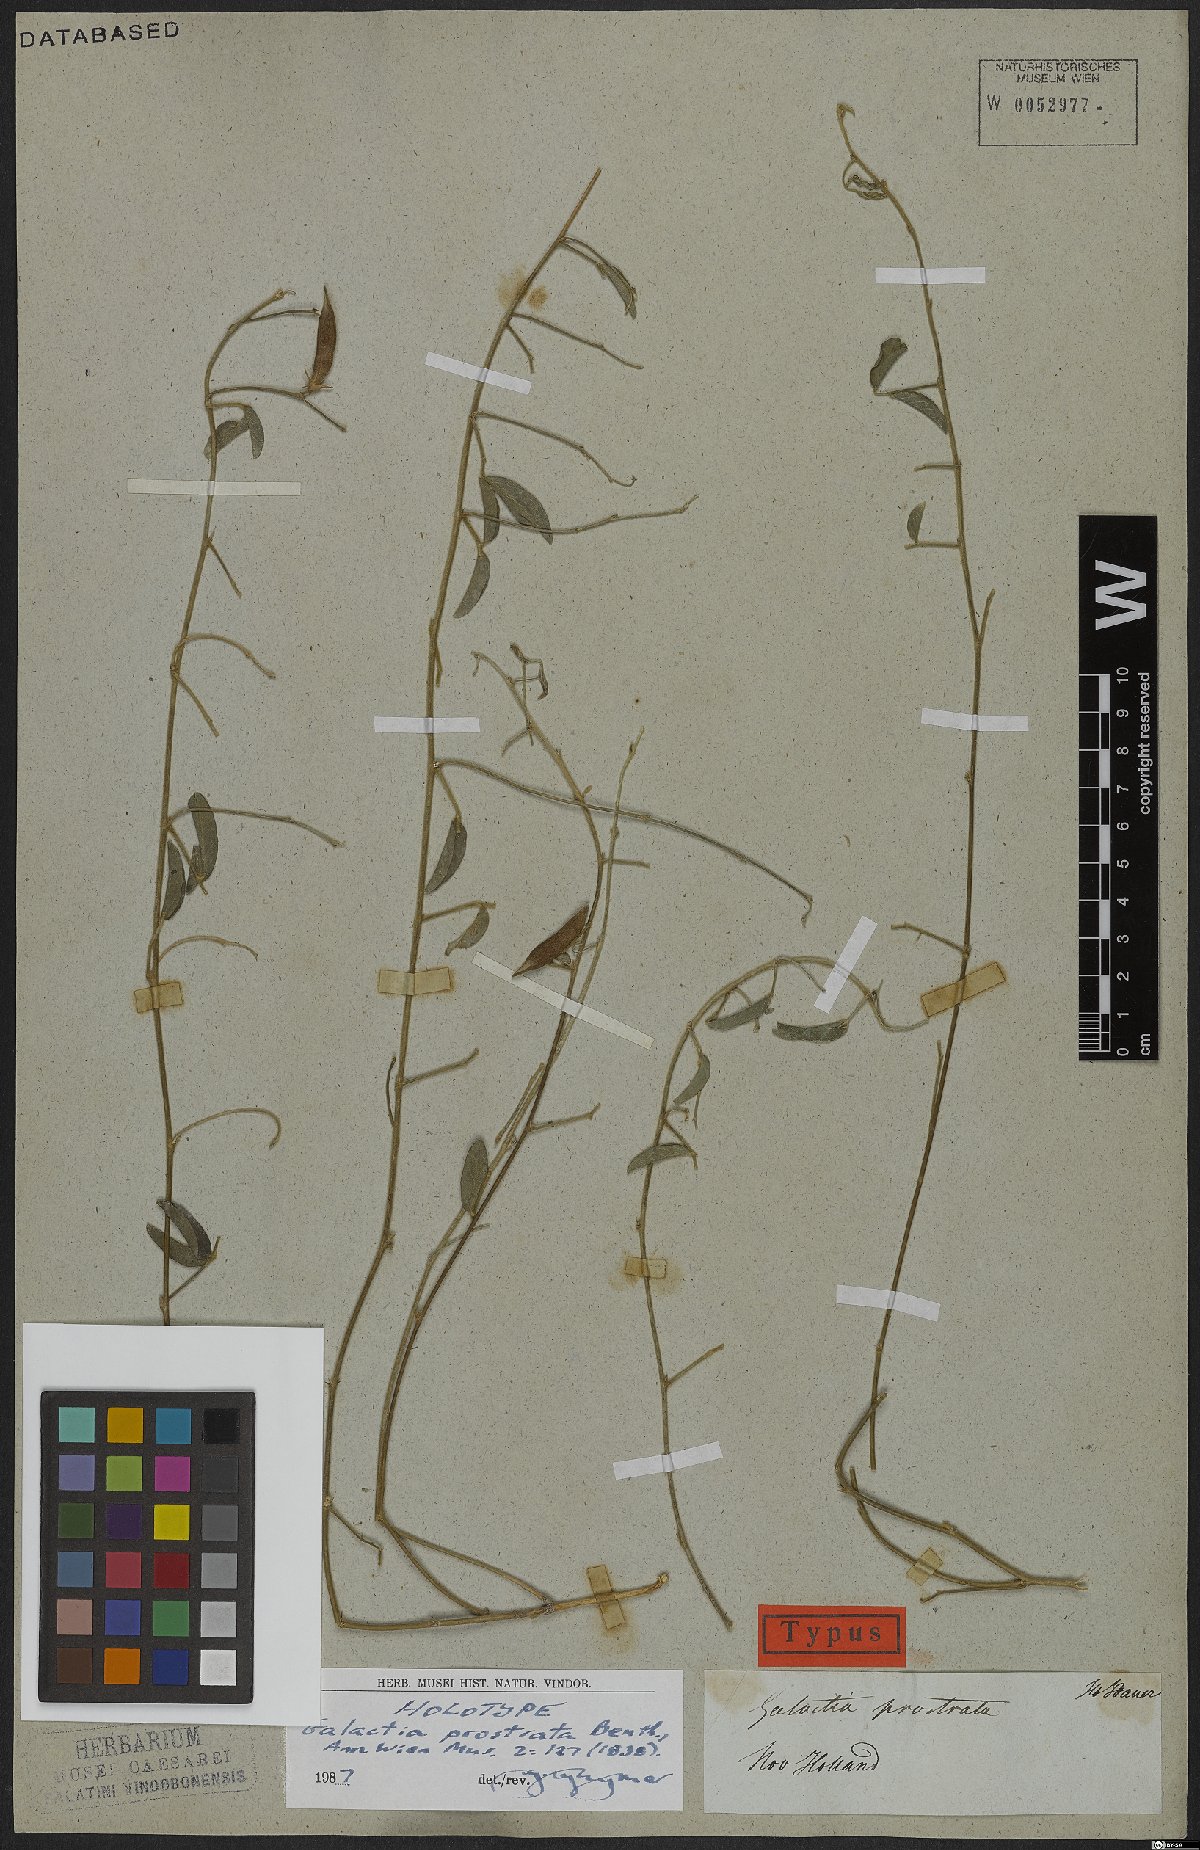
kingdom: Plantae
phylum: Tracheophyta
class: Magnoliopsida
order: Fabales
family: Fabaceae
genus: Galactia
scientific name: Galactia striata
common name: Florida hammock milkpea
